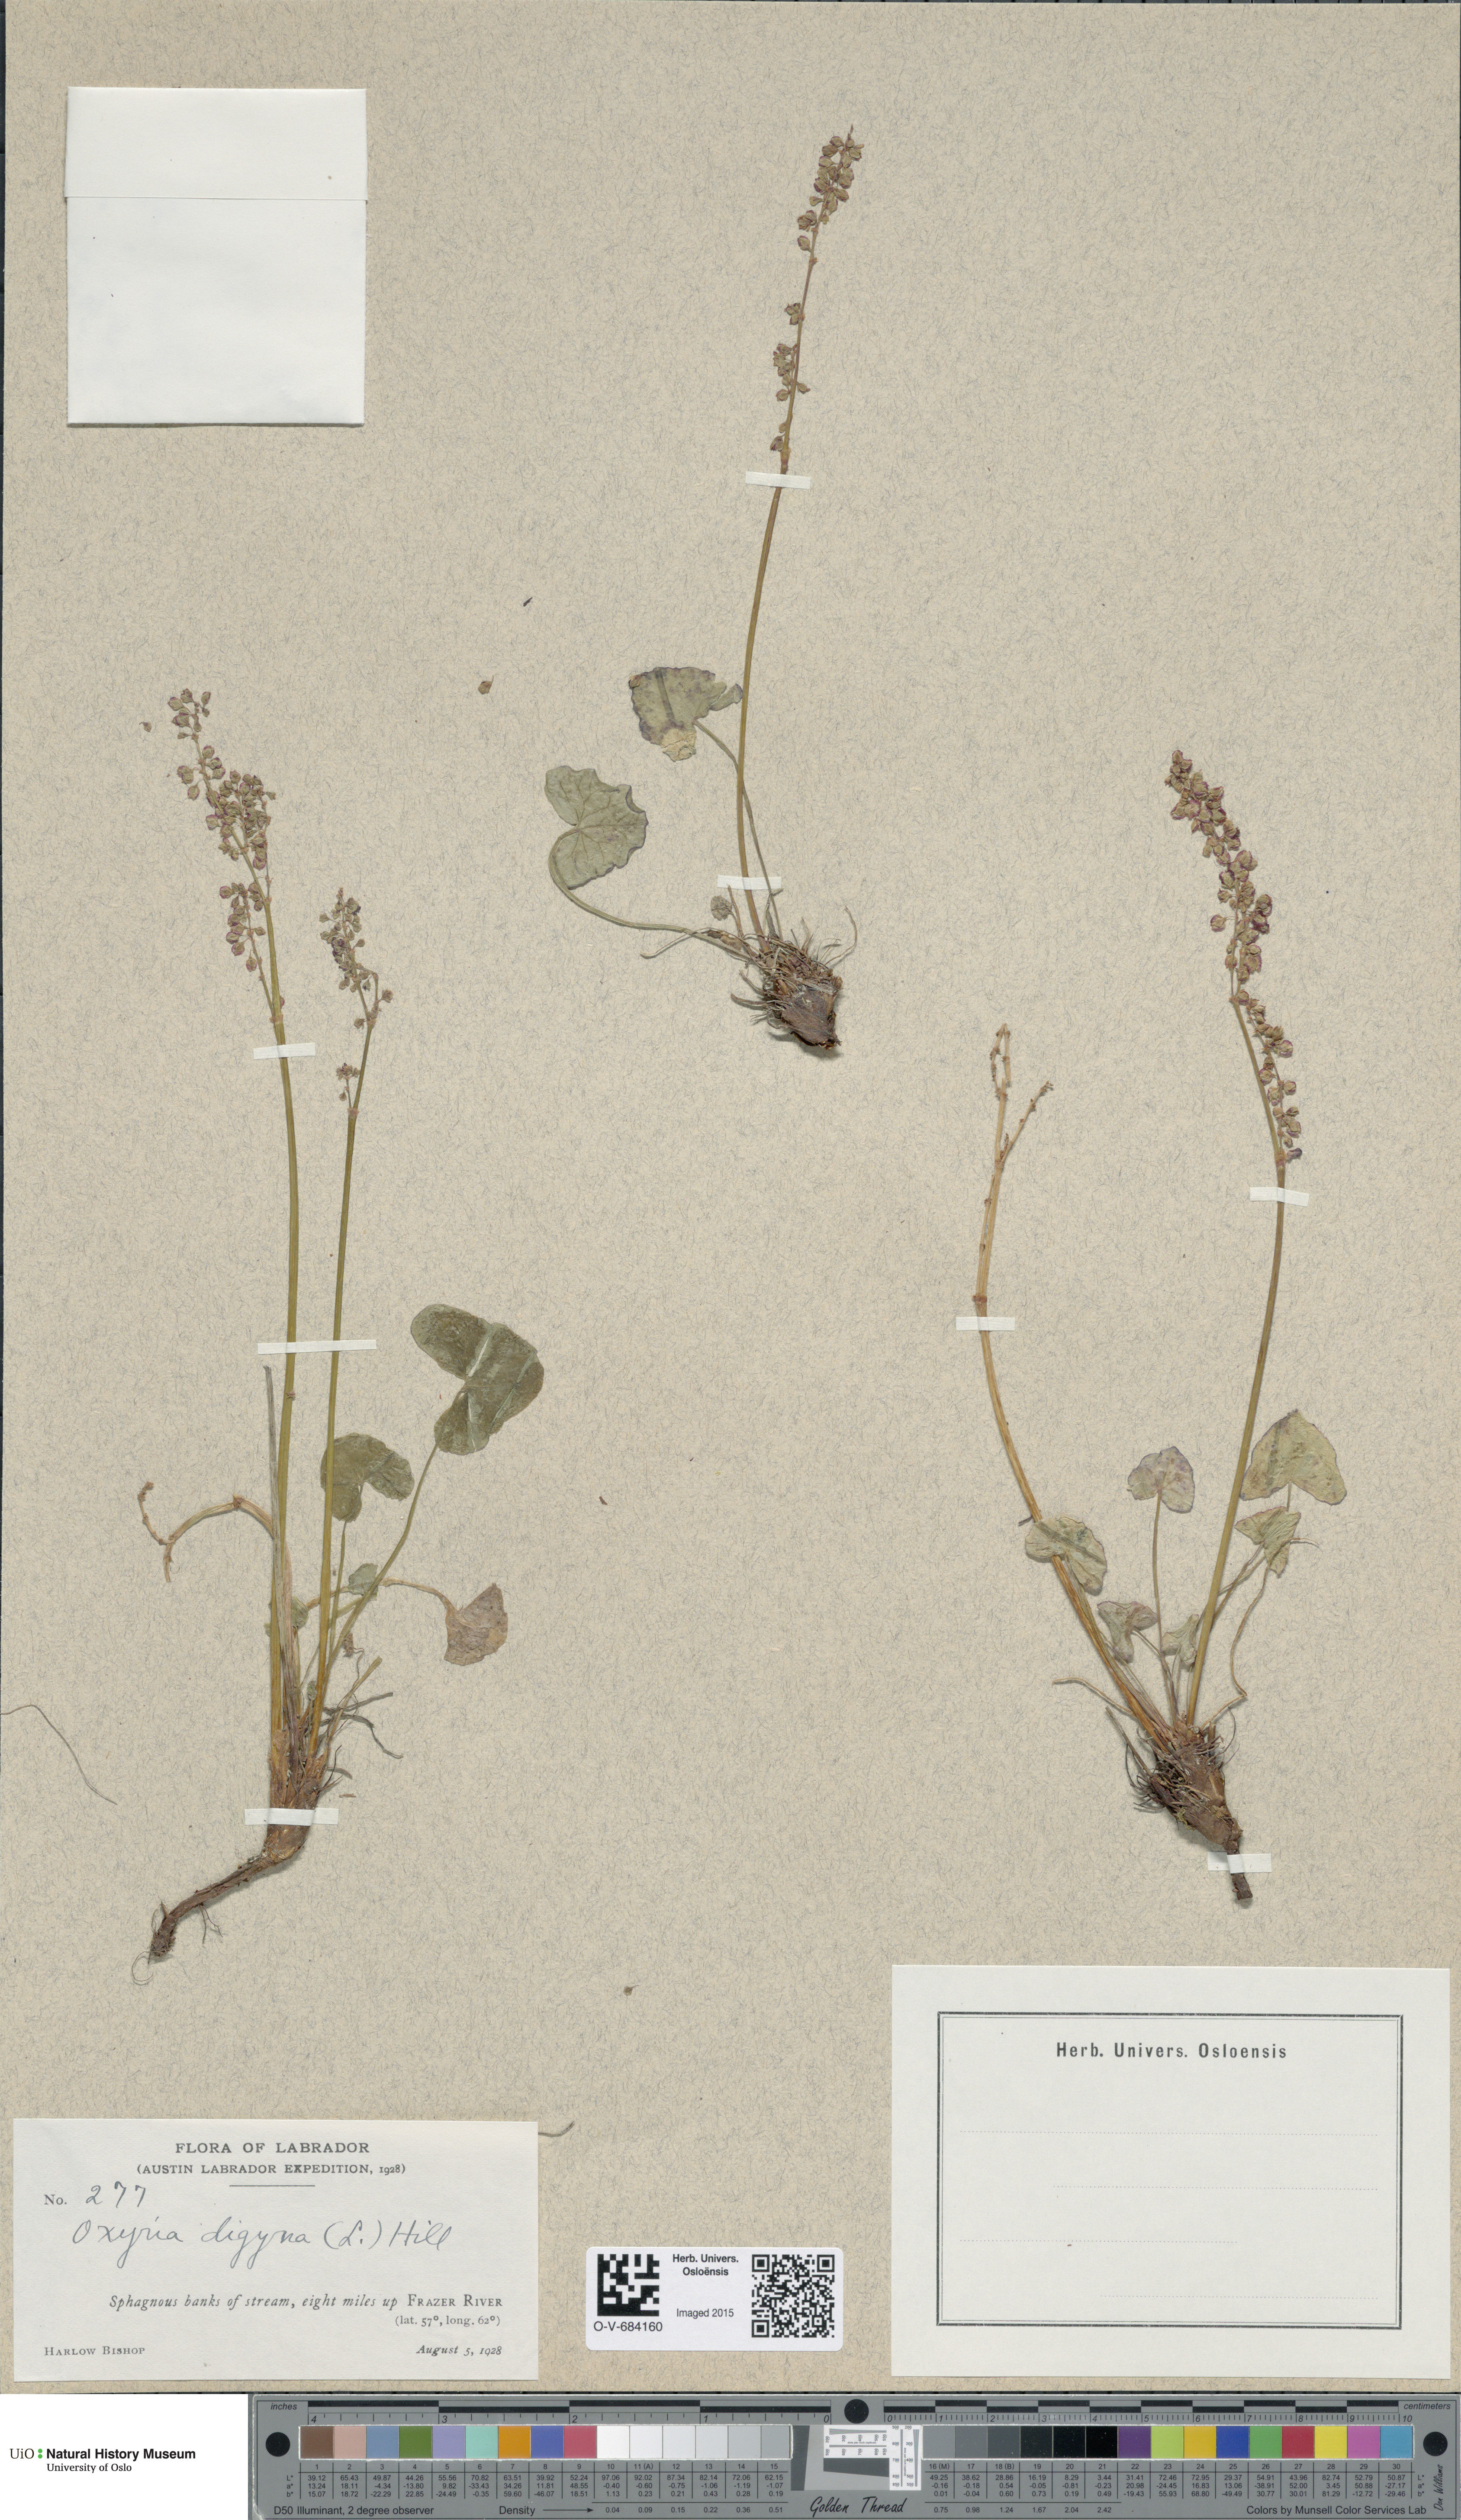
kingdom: Plantae
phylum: Tracheophyta
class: Magnoliopsida
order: Caryophyllales
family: Polygonaceae
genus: Oxyria
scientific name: Oxyria digyna
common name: Alpine mountain-sorrel
